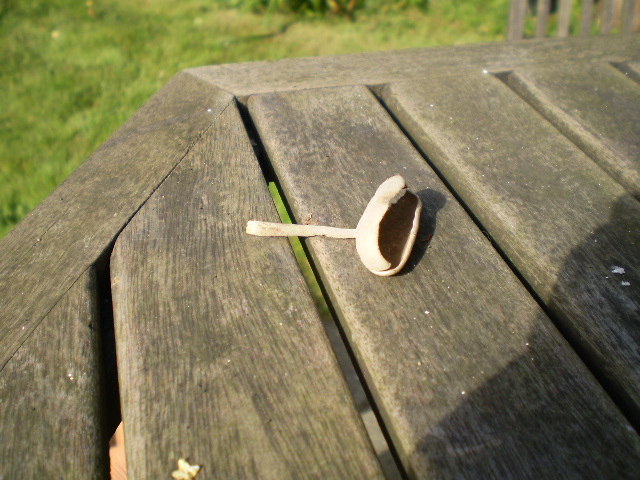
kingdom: Fungi
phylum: Ascomycota
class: Pezizomycetes
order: Pezizales
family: Helvellaceae
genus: Helvella
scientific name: Helvella macropus
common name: højstokket foldhat
